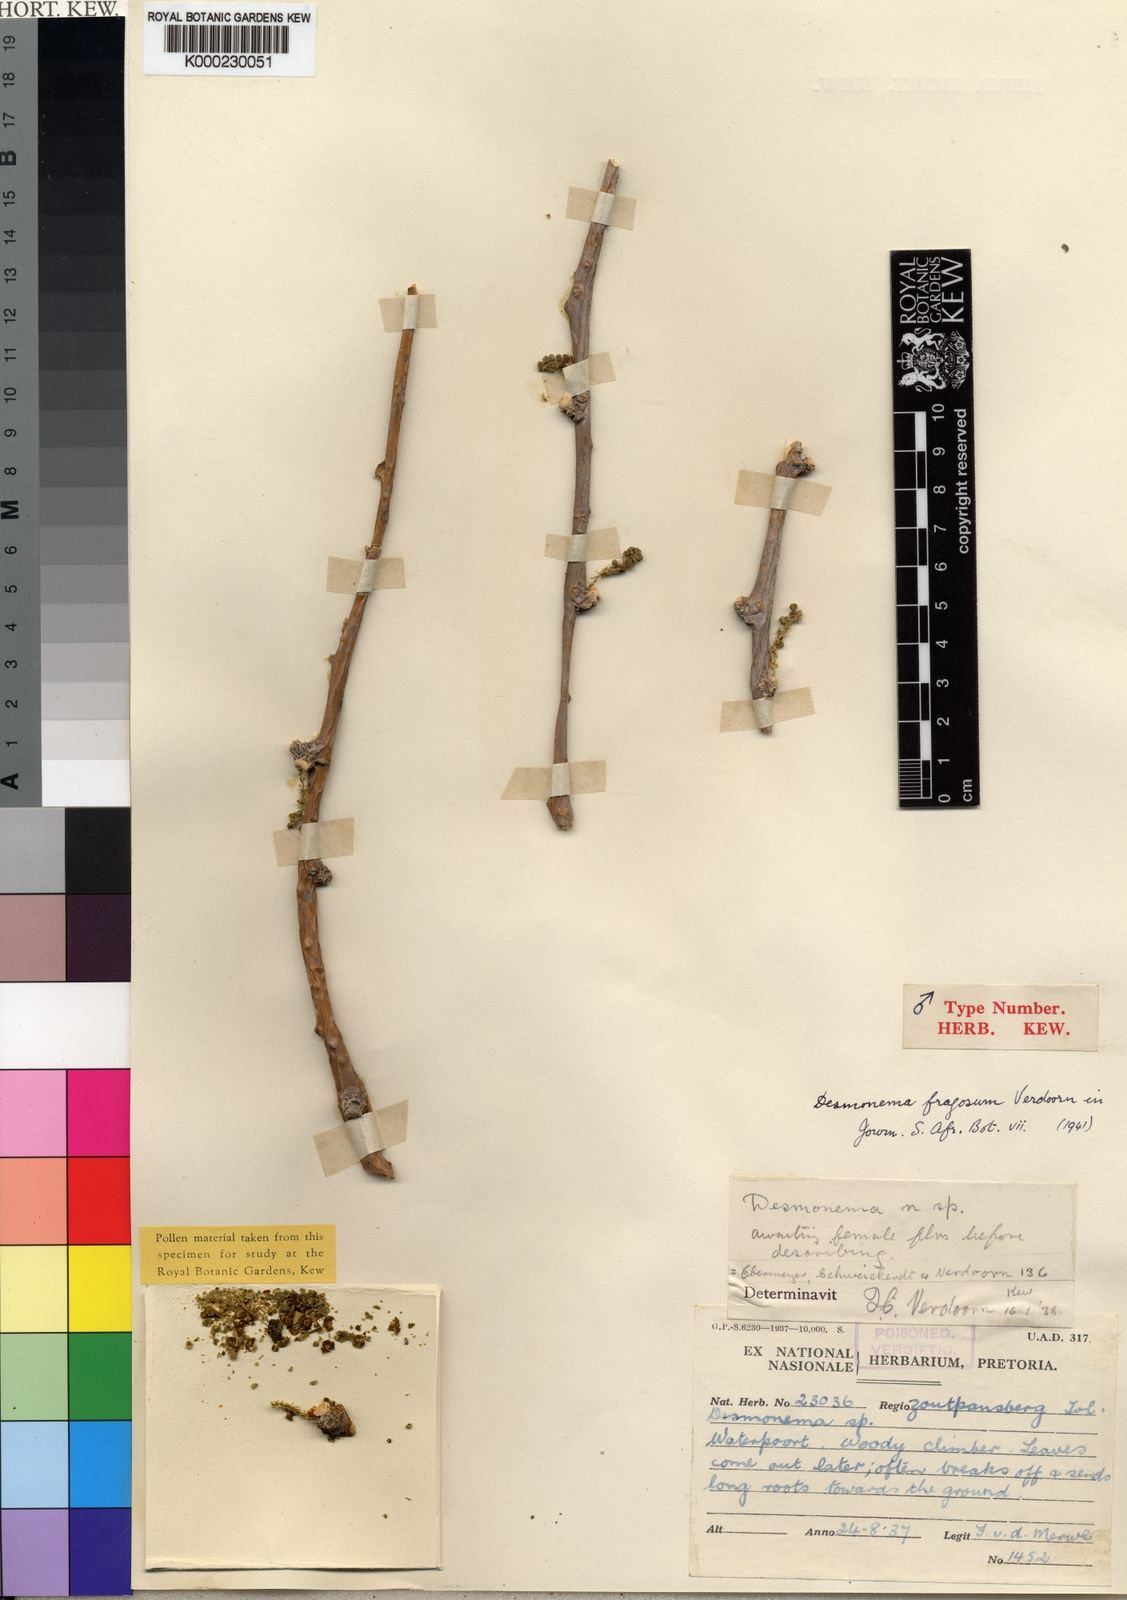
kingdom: Plantae
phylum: Tracheophyta
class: Magnoliopsida
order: Ranunculales
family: Menispermaceae
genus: Tinospora
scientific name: Tinospora fragosa
